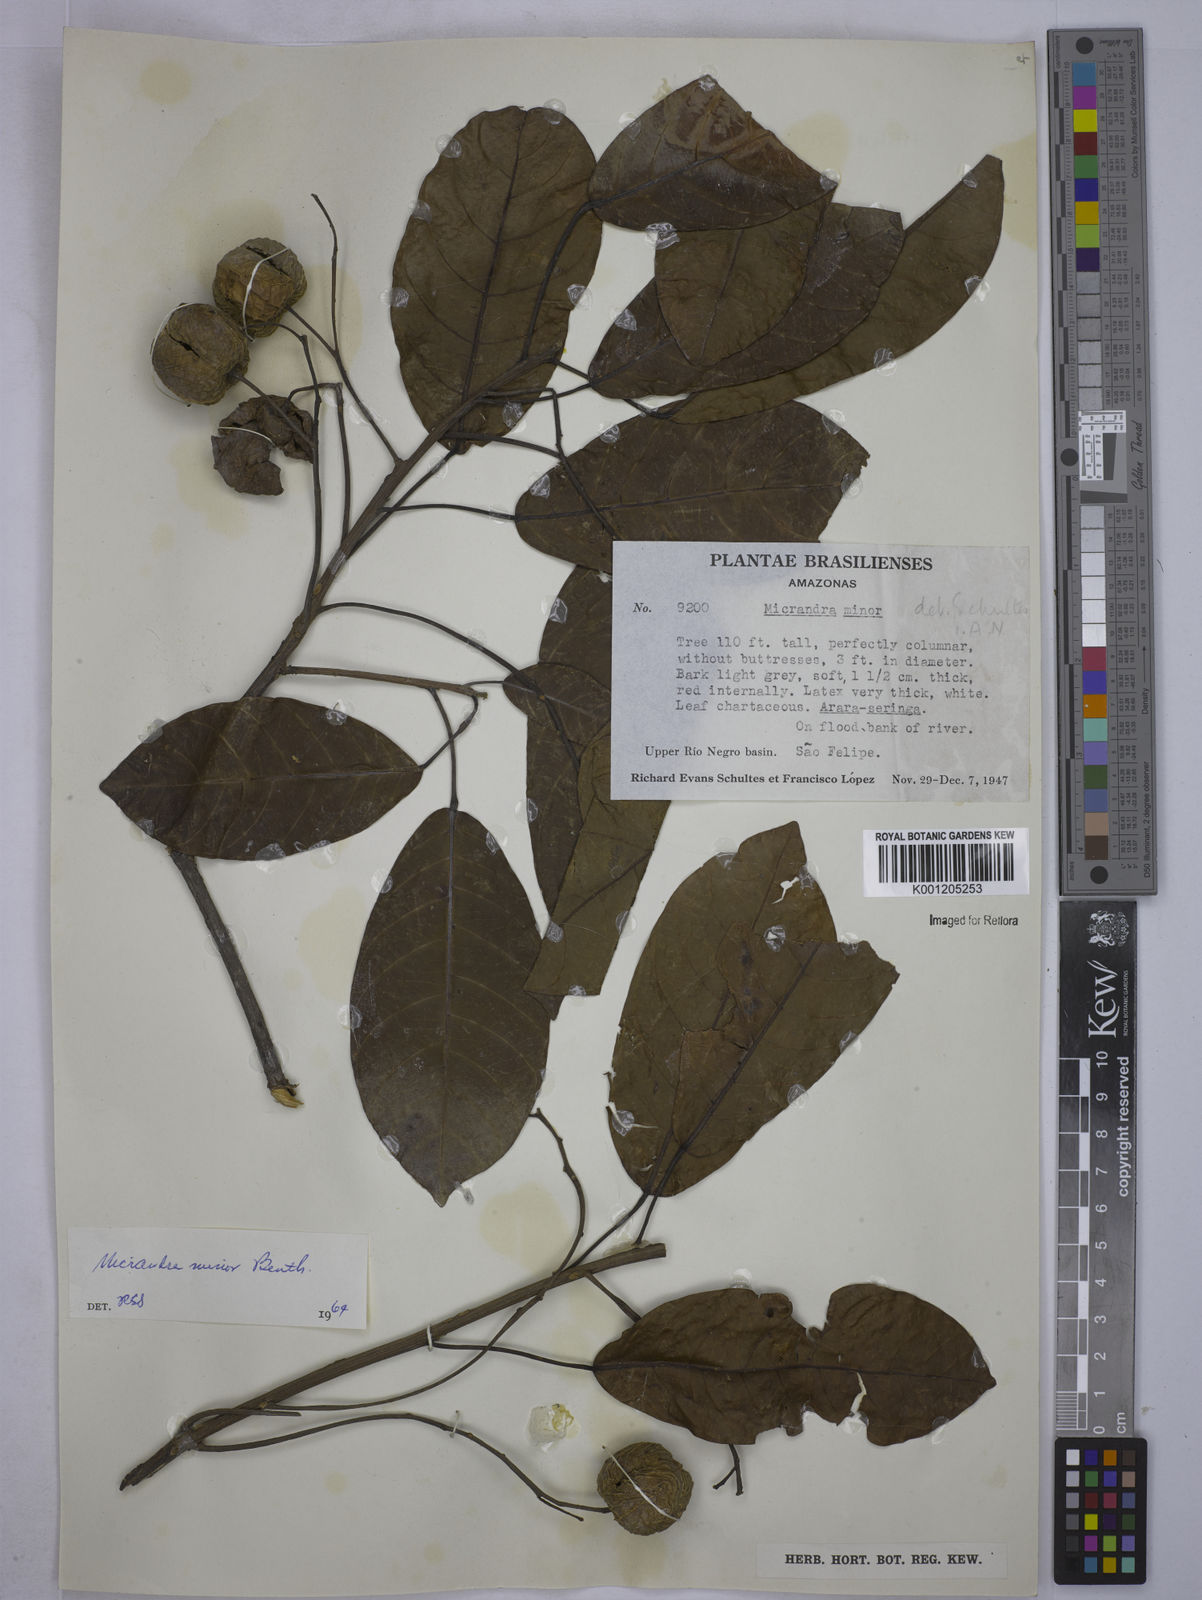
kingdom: Plantae
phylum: Tracheophyta
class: Magnoliopsida
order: Malpighiales
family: Euphorbiaceae
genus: Micrandra
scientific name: Micrandra minor
